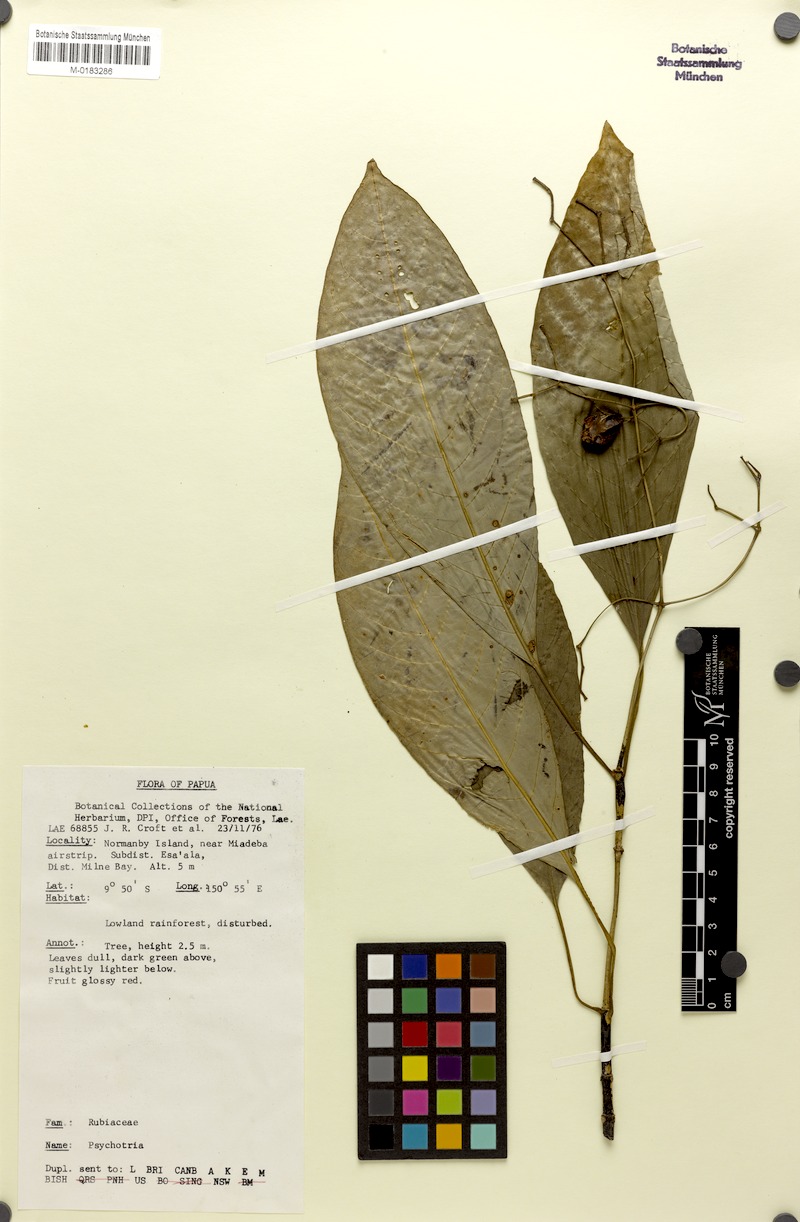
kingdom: Plantae
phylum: Tracheophyta
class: Magnoliopsida
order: Gentianales
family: Rubiaceae
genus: Eumachia
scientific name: Eumachia galorei
